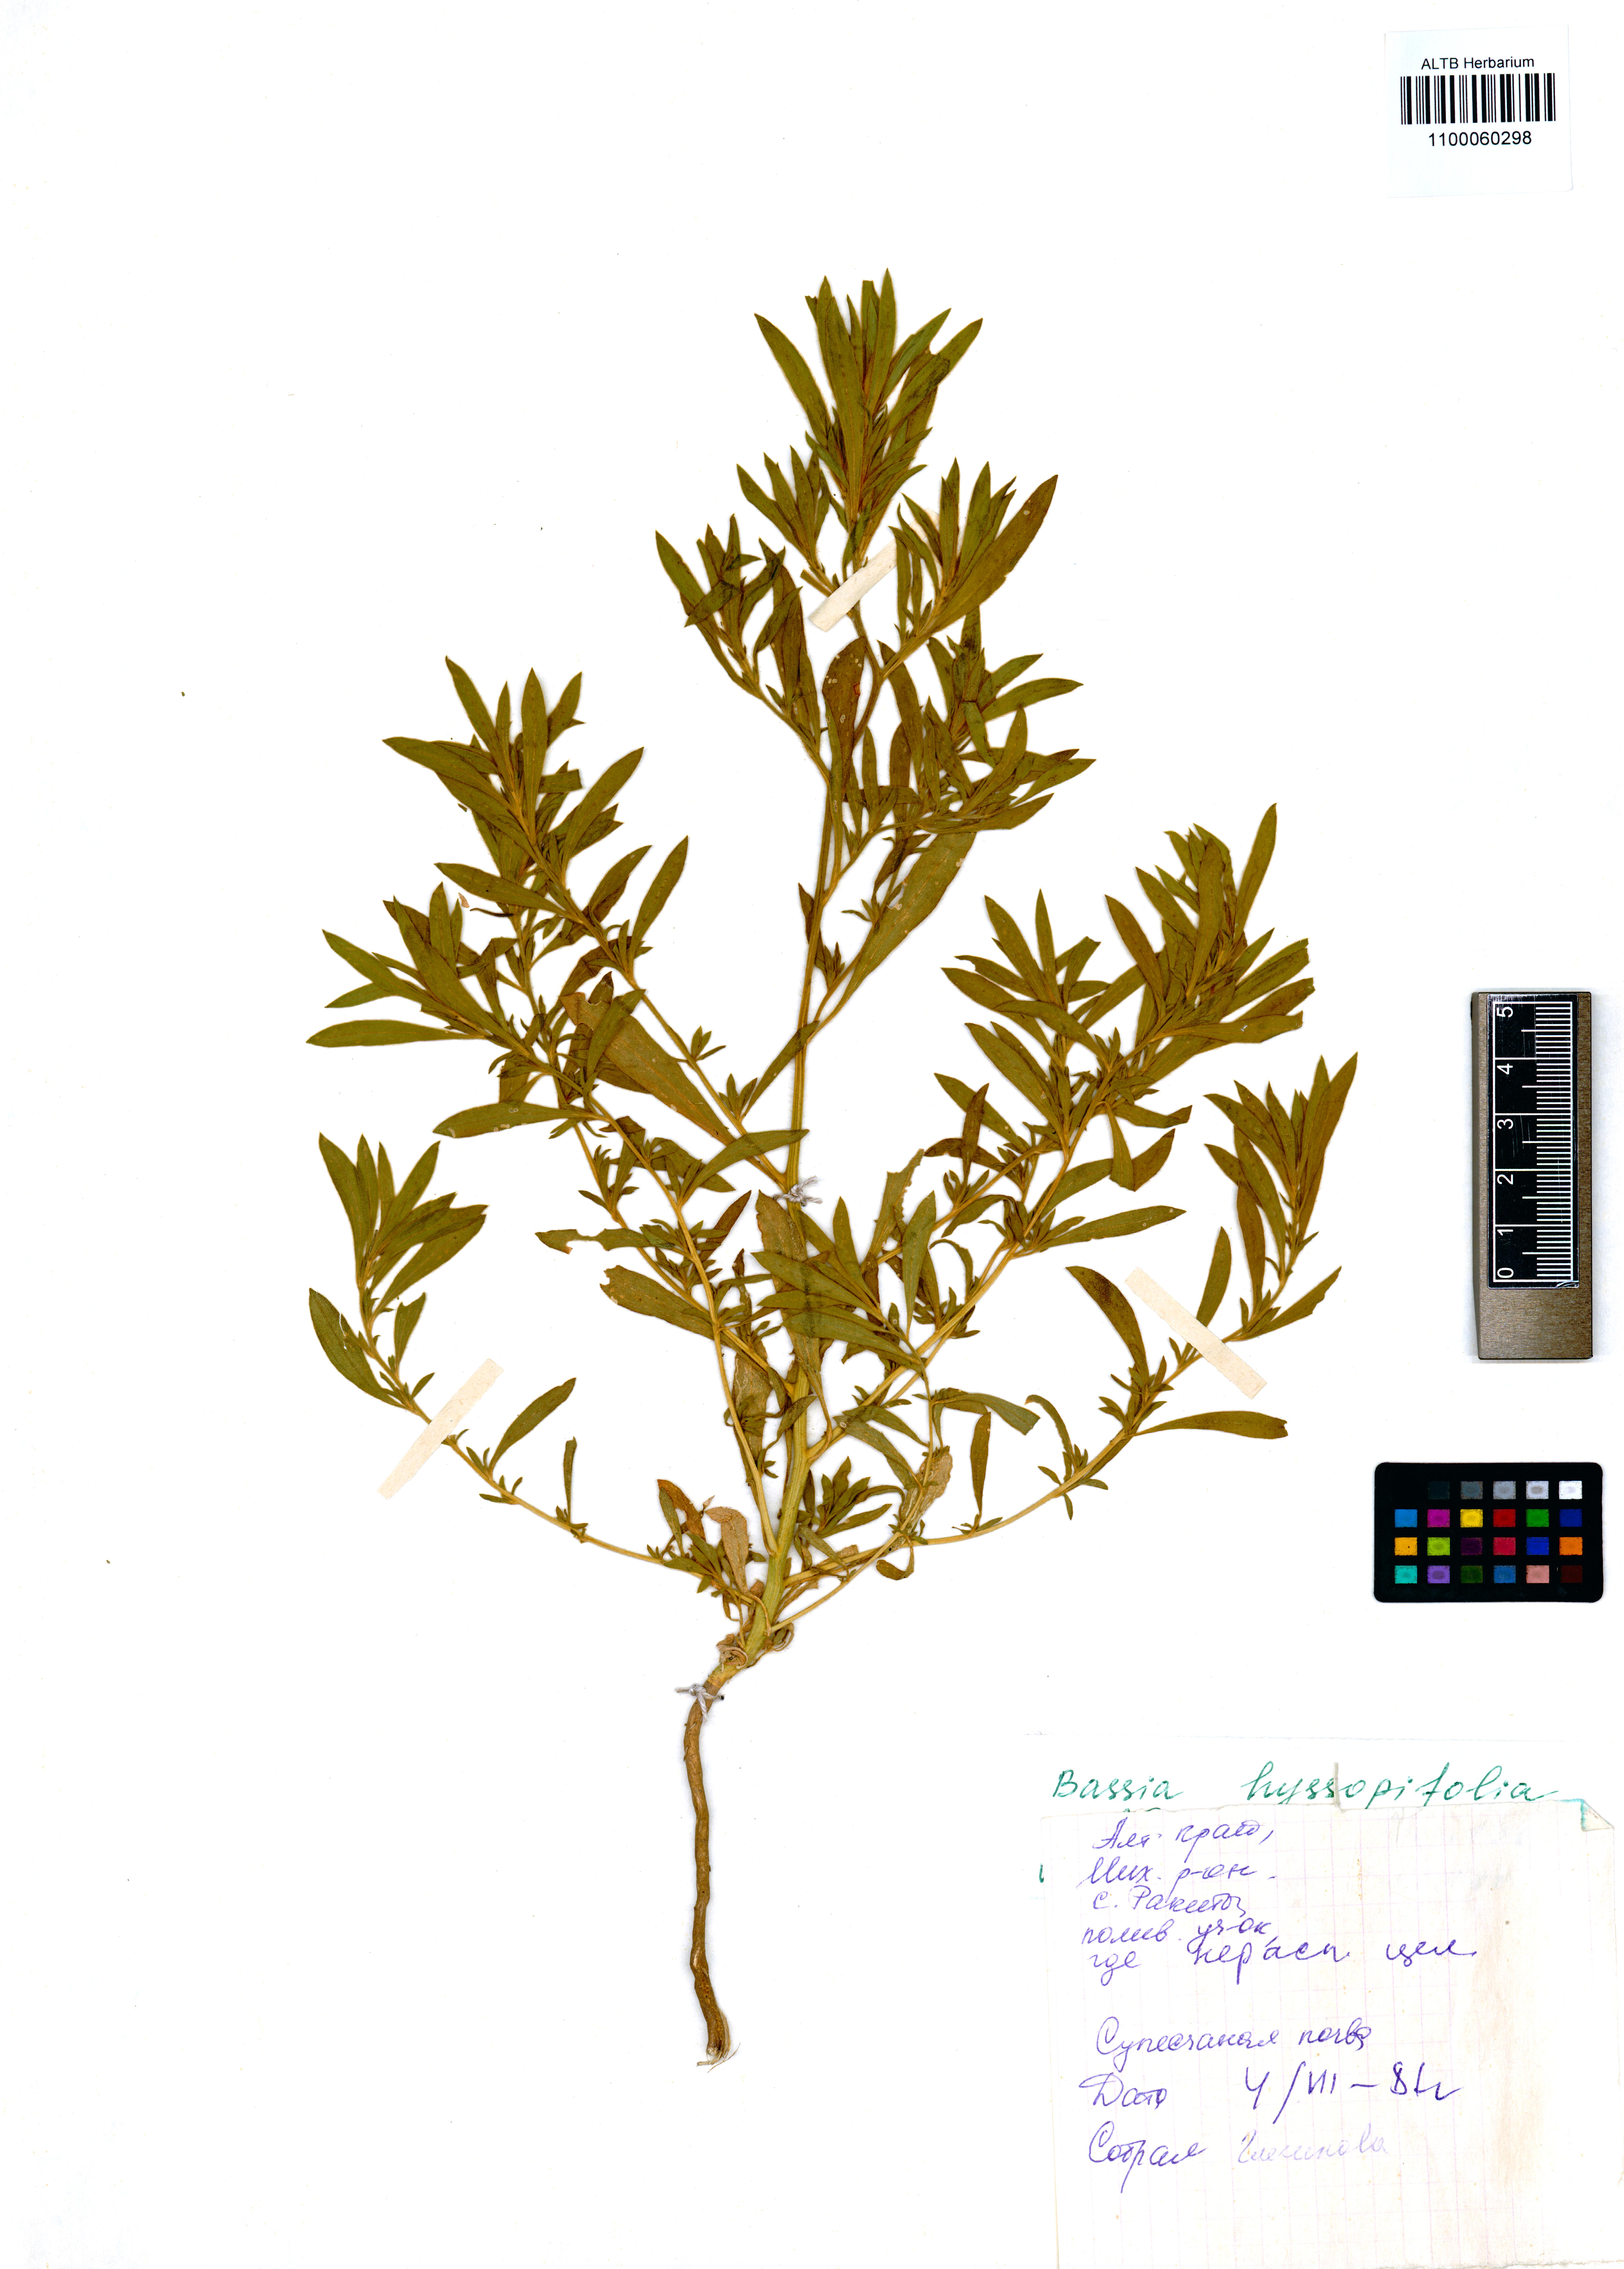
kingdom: Plantae
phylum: Tracheophyta
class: Magnoliopsida
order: Caryophyllales
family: Amaranthaceae
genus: Bassia
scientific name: Bassia hyssopifolia
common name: Fivehorn smotherweed
